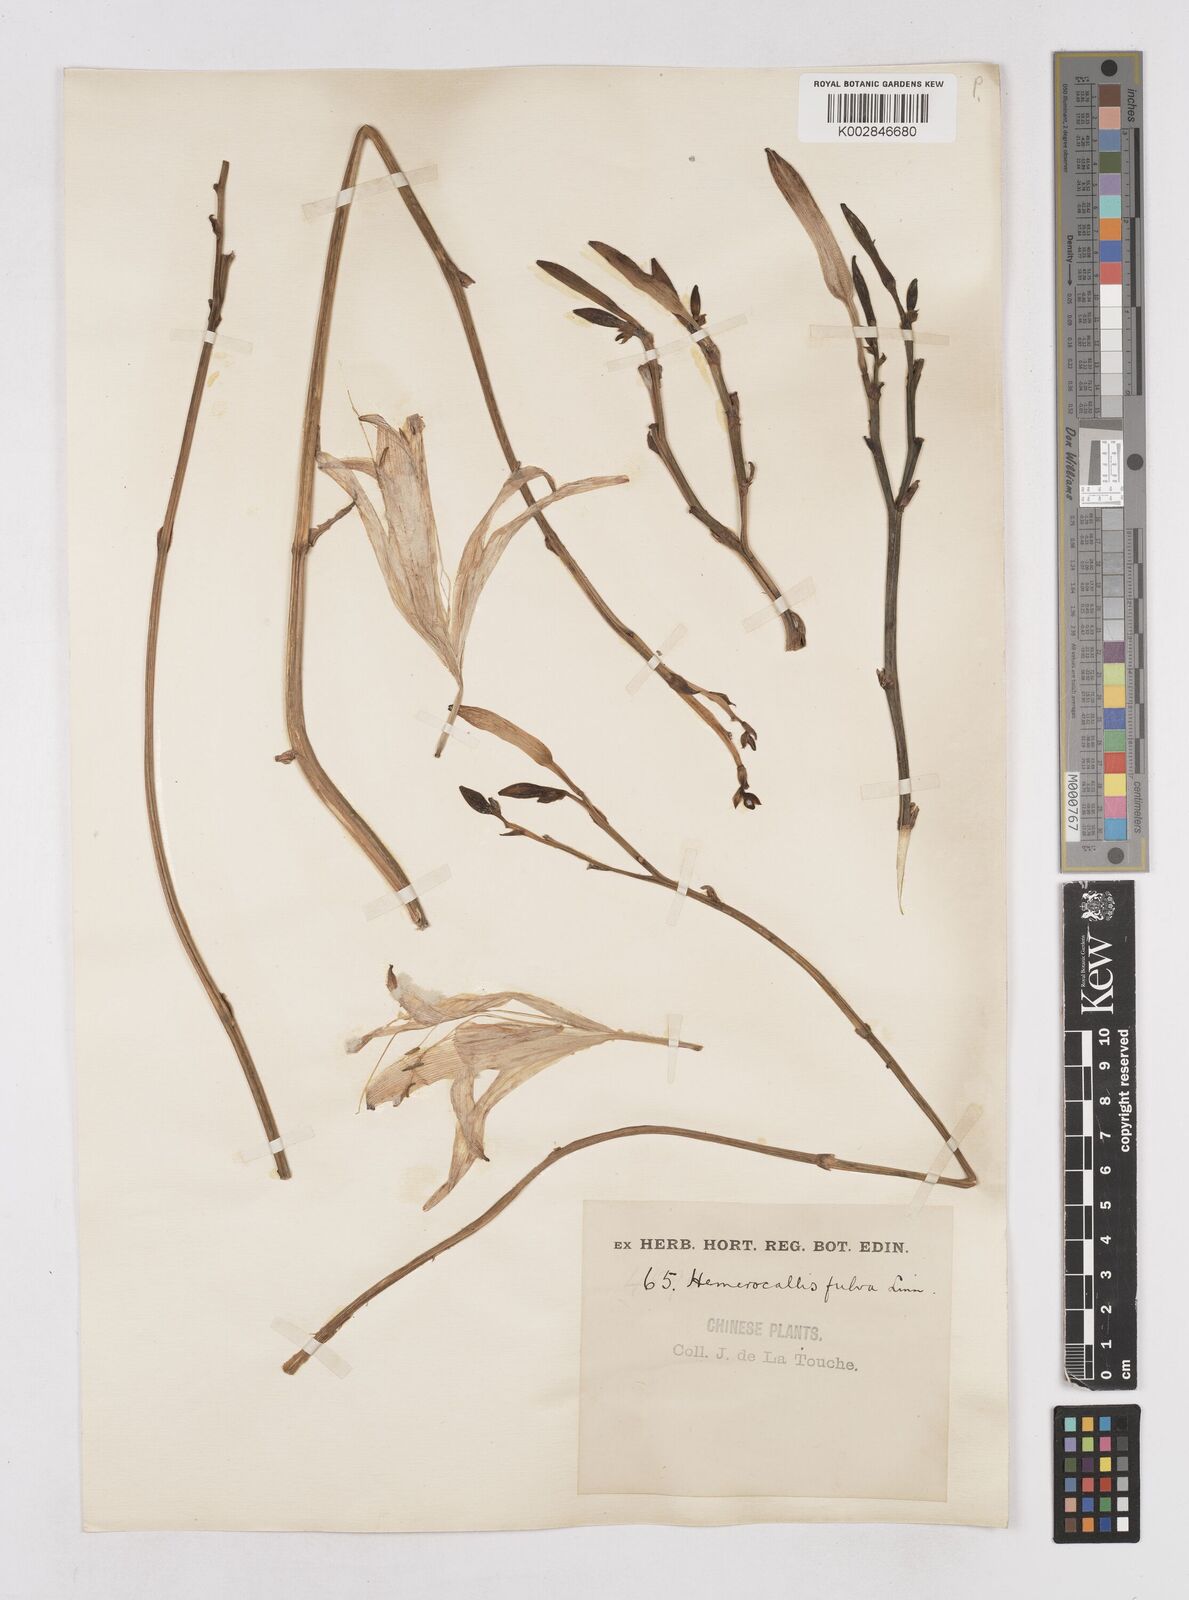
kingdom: Plantae
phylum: Tracheophyta
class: Liliopsida
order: Asparagales
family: Asphodelaceae
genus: Hemerocallis
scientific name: Hemerocallis fulva
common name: Orange day-lily
